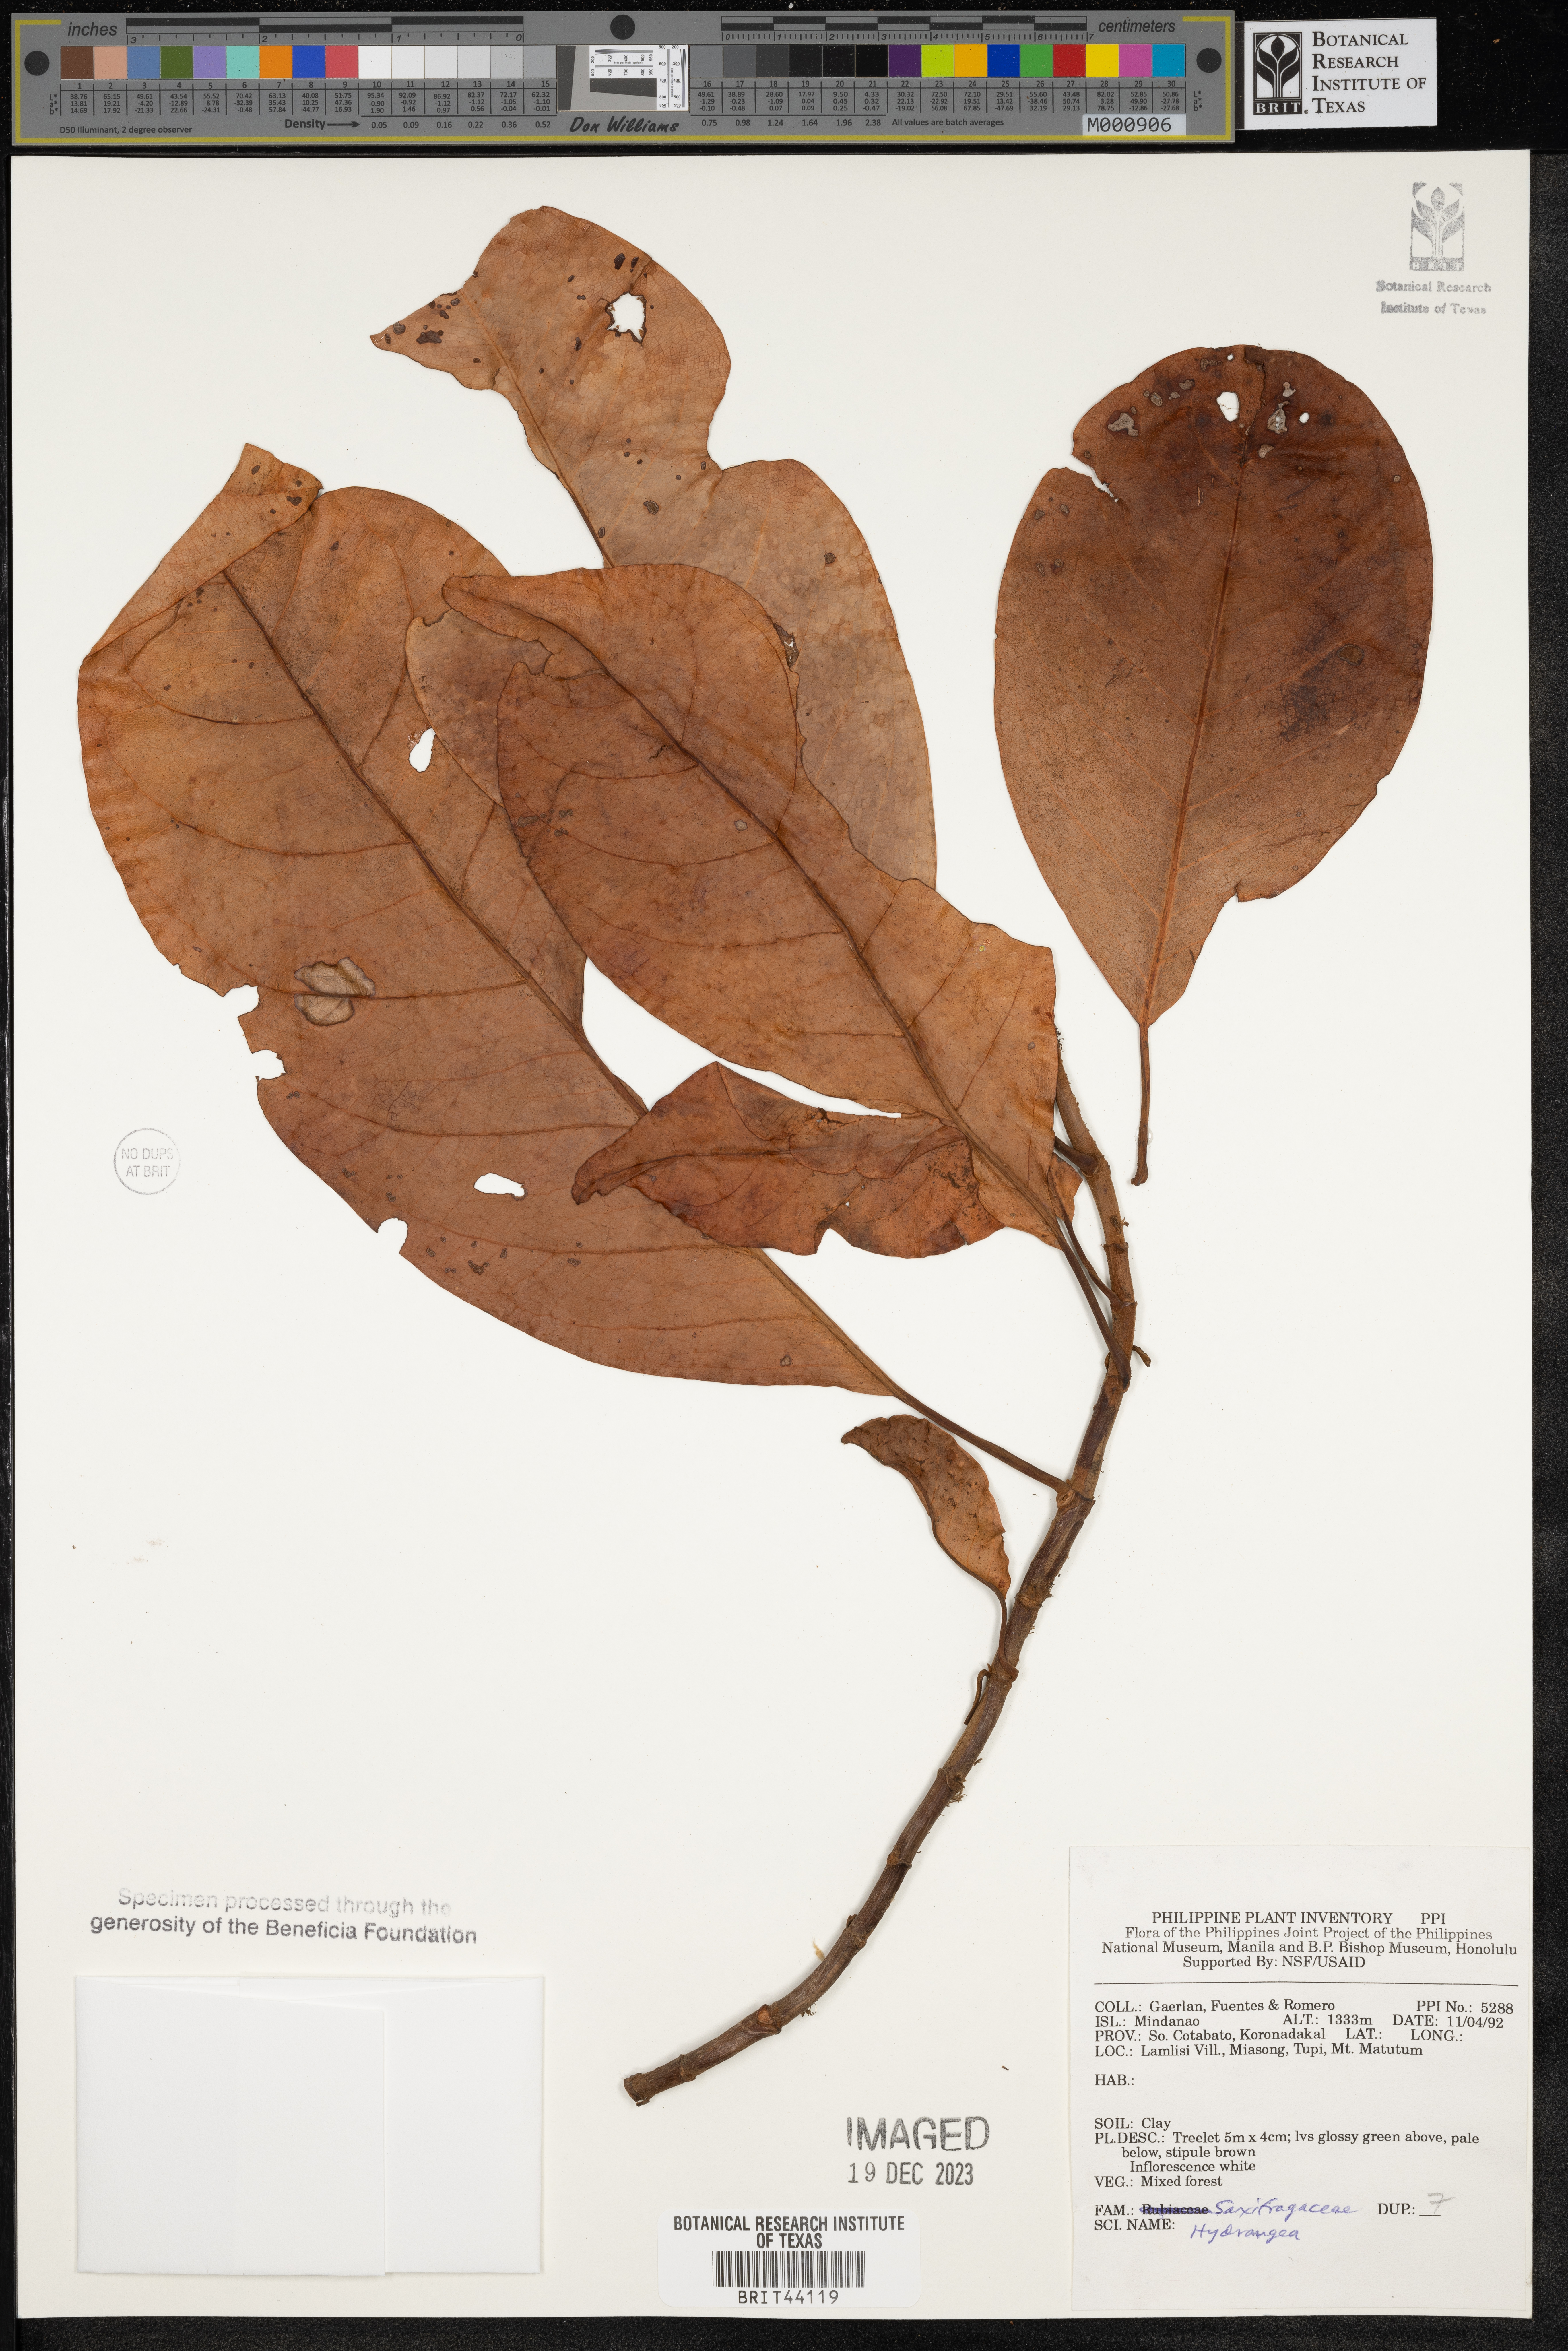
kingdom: Plantae
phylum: Tracheophyta
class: Magnoliopsida
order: Cornales
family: Hydrangeaceae
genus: Hydrangea
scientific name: Hydrangea
